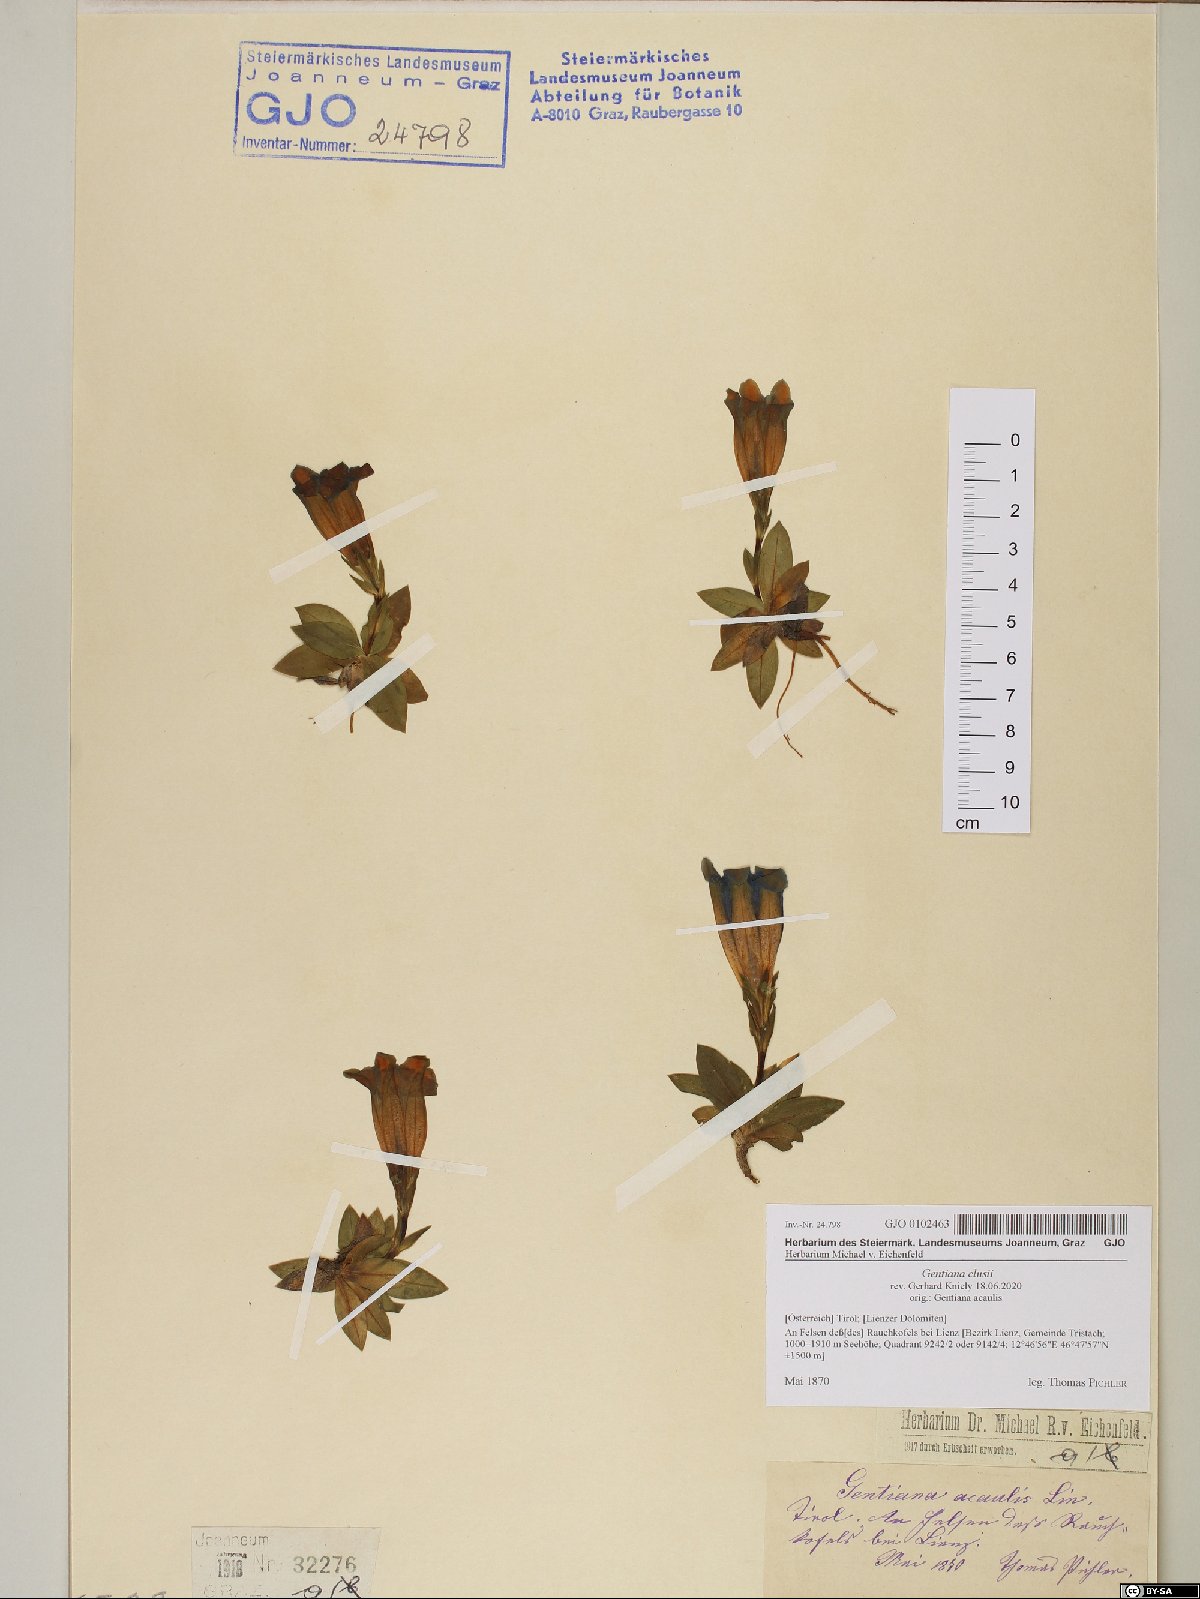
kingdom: Plantae
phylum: Tracheophyta
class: Magnoliopsida
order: Gentianales
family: Gentianaceae
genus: Gentiana
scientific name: Gentiana clusii
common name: Trumpet gentian
